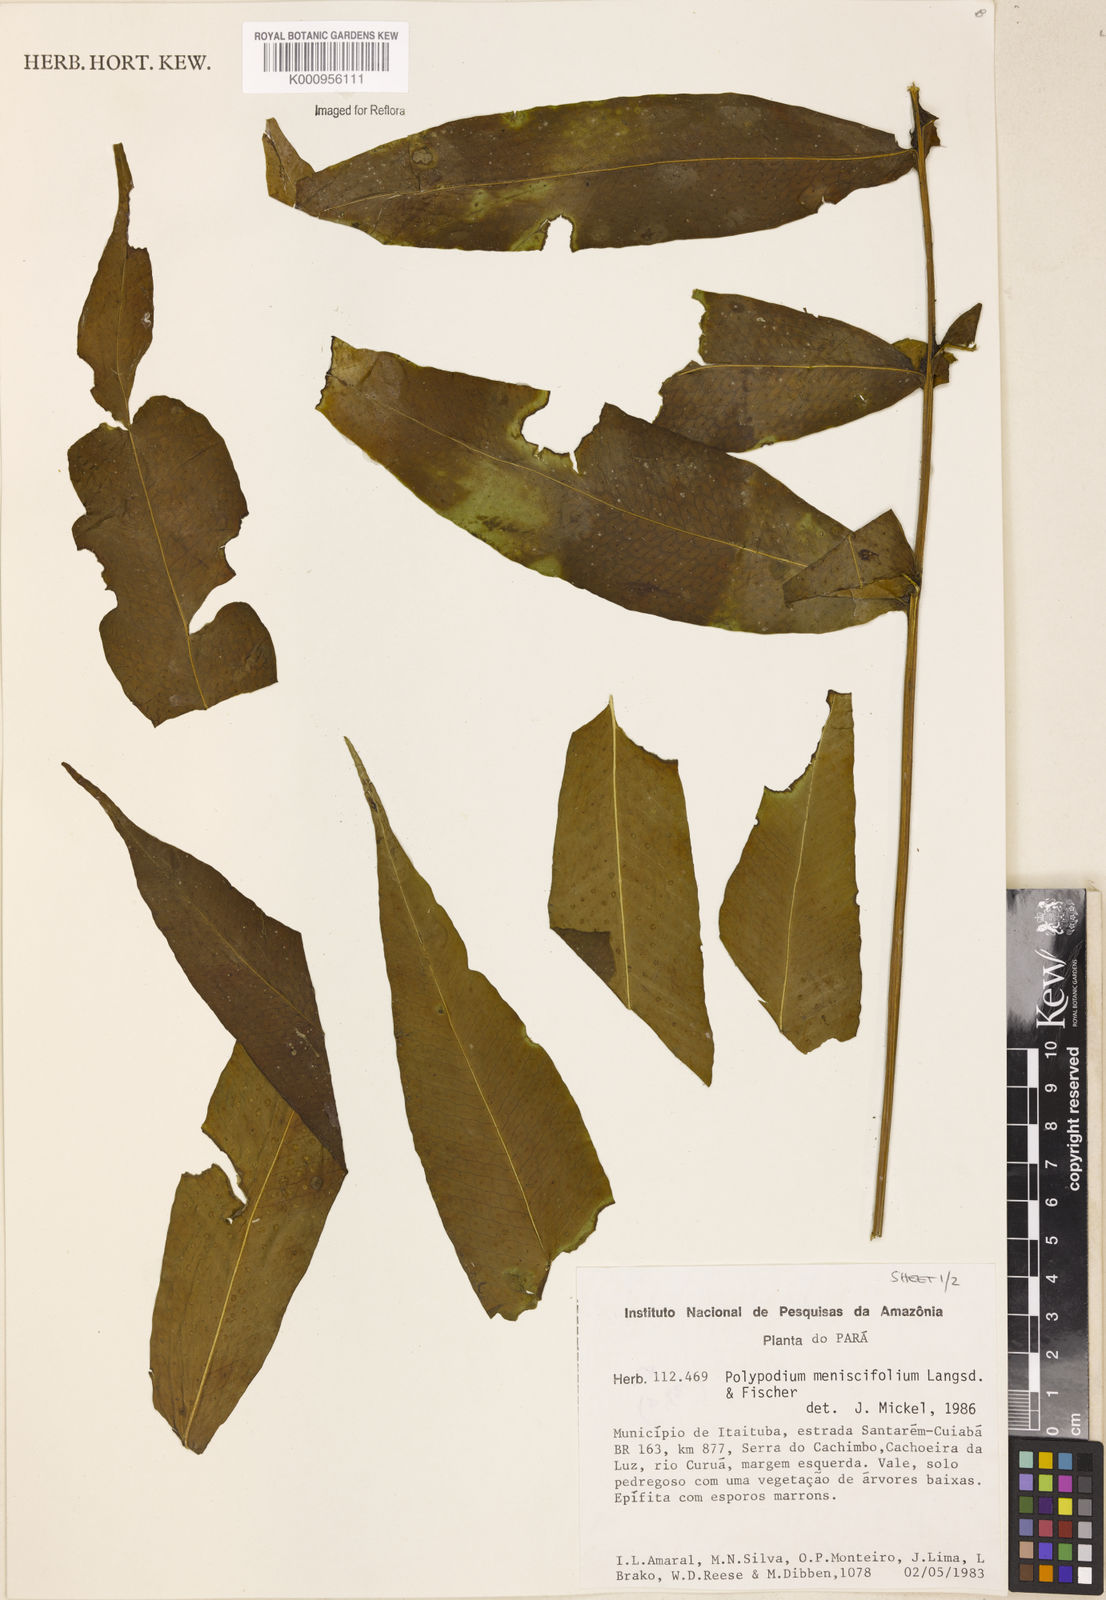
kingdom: Plantae
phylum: Tracheophyta
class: Polypodiopsida
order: Polypodiales
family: Polypodiaceae
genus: Polypodium
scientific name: Polypodium
